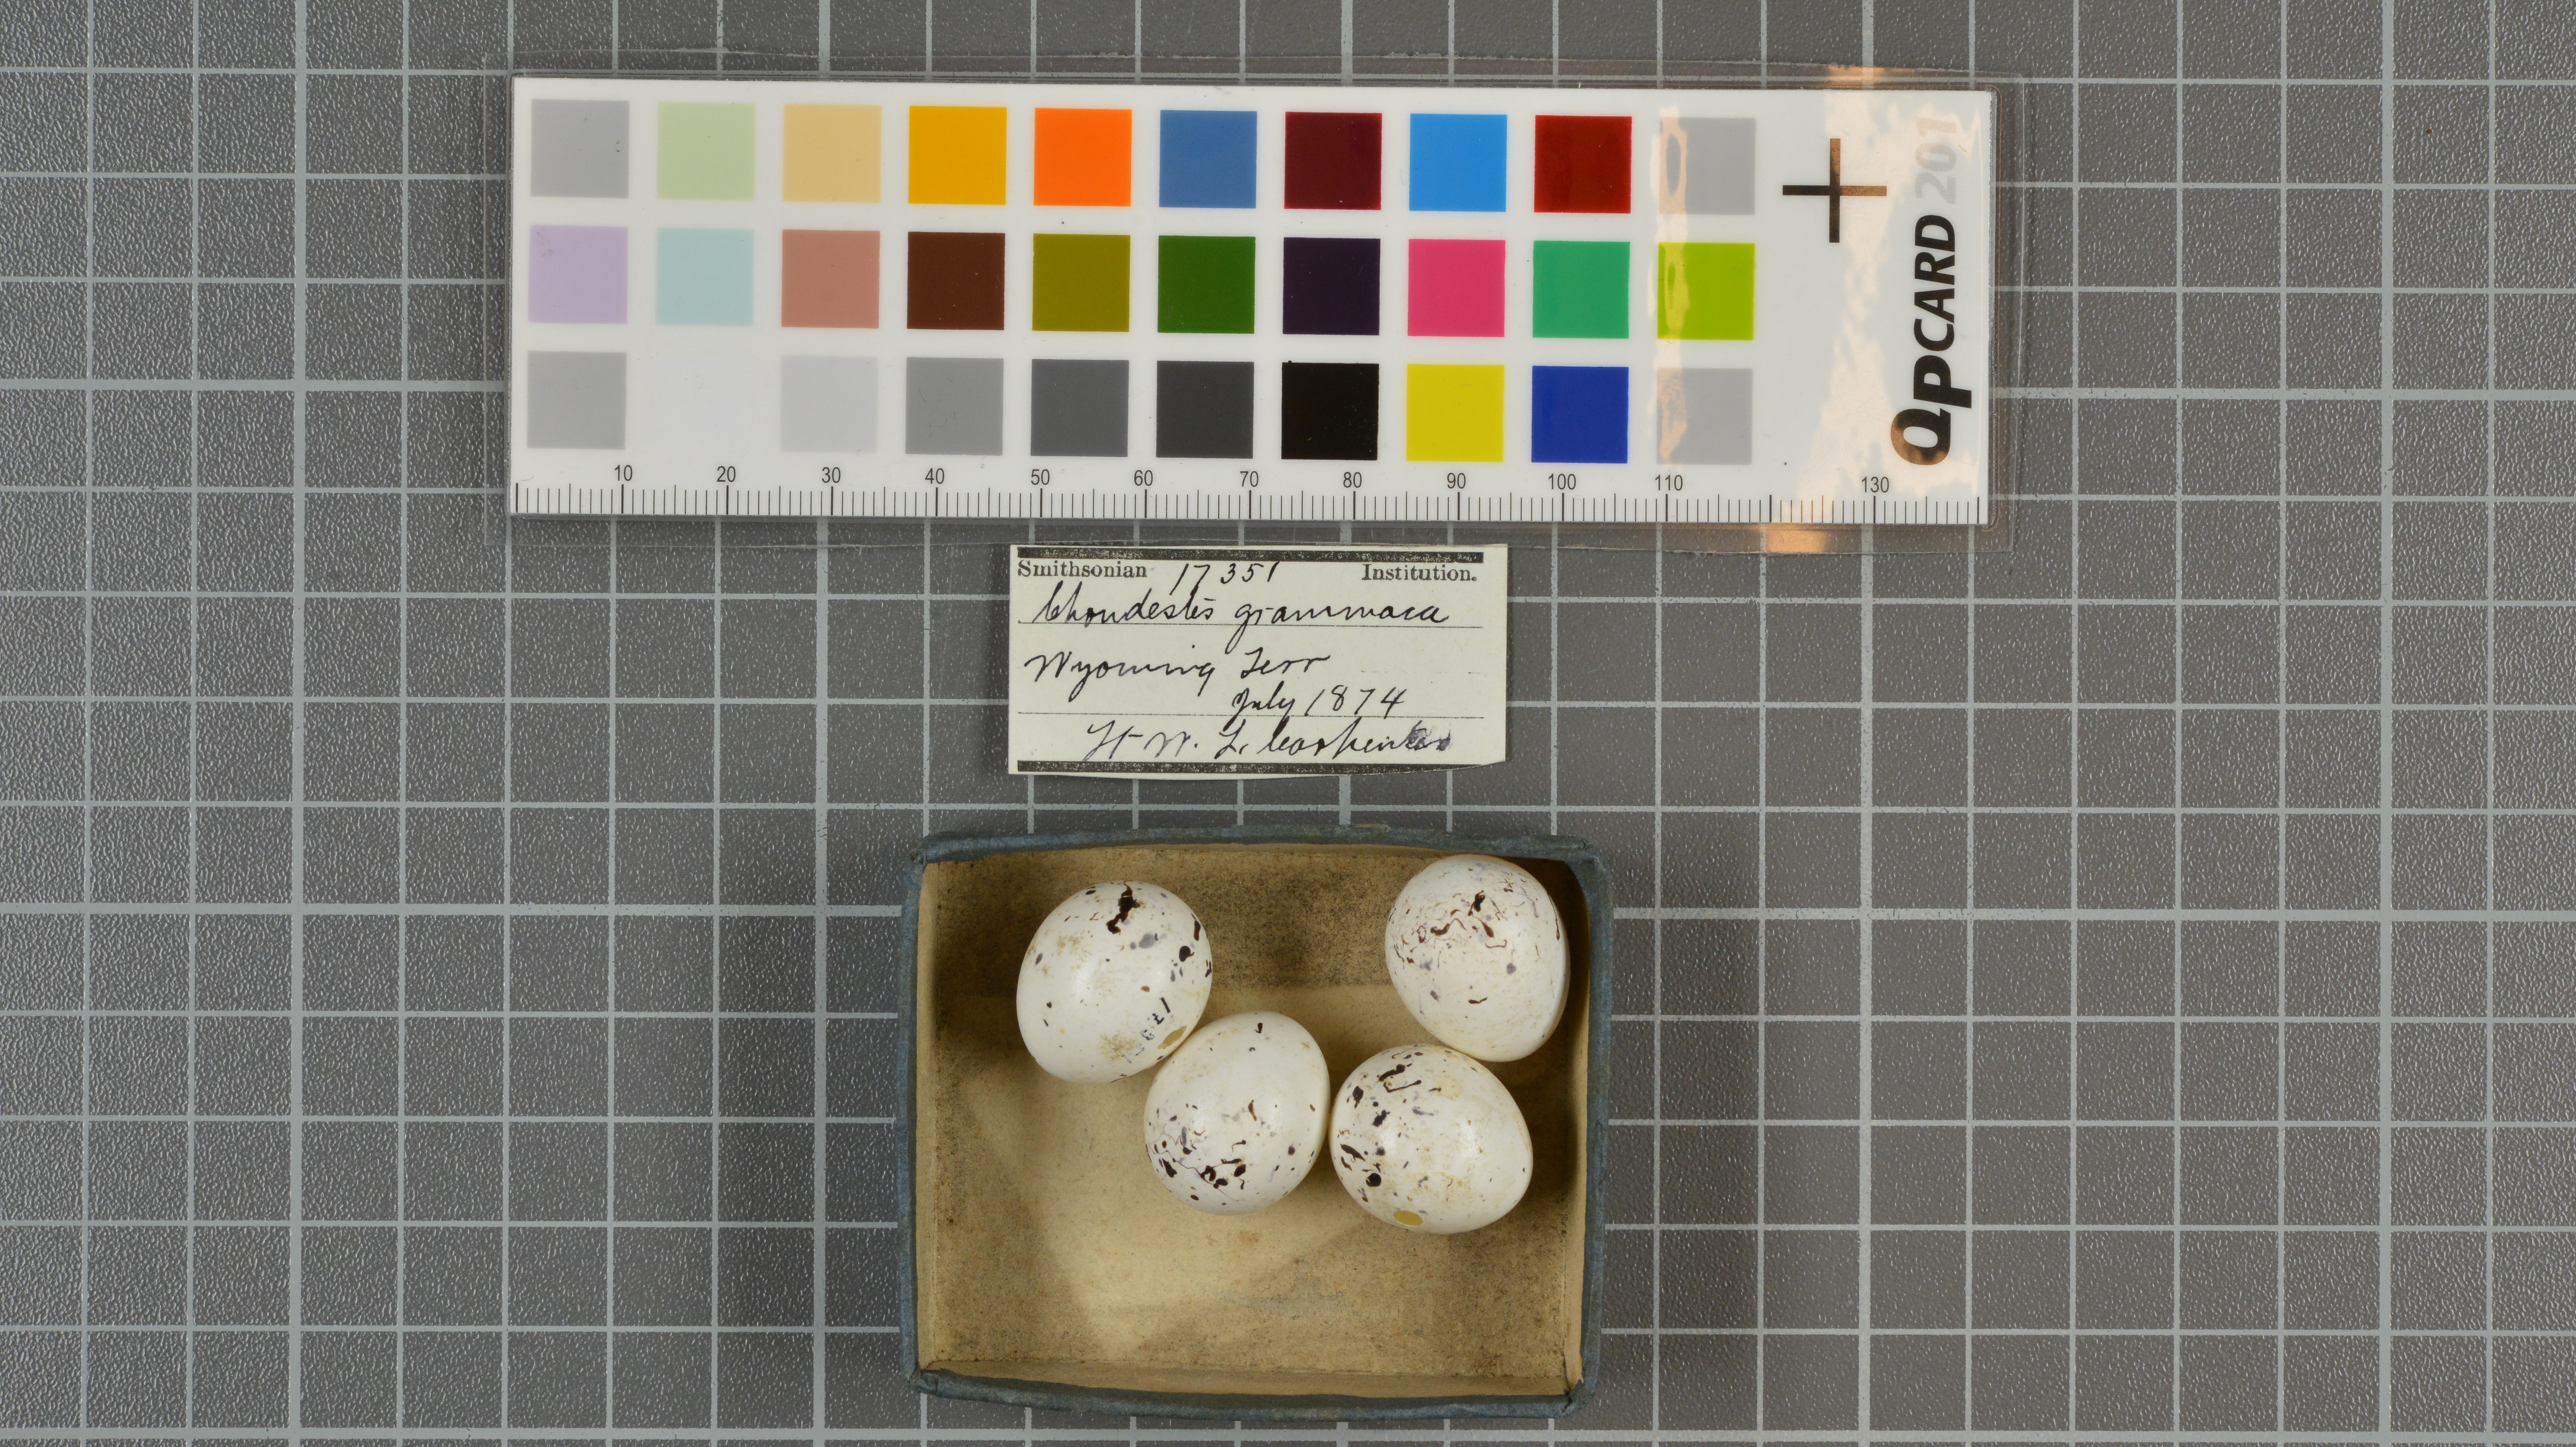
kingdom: Animalia
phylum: Chordata
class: Aves
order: Passeriformes
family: Passerellidae
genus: Chondestes
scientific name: Chondestes grammacus
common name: Lark sparrow
